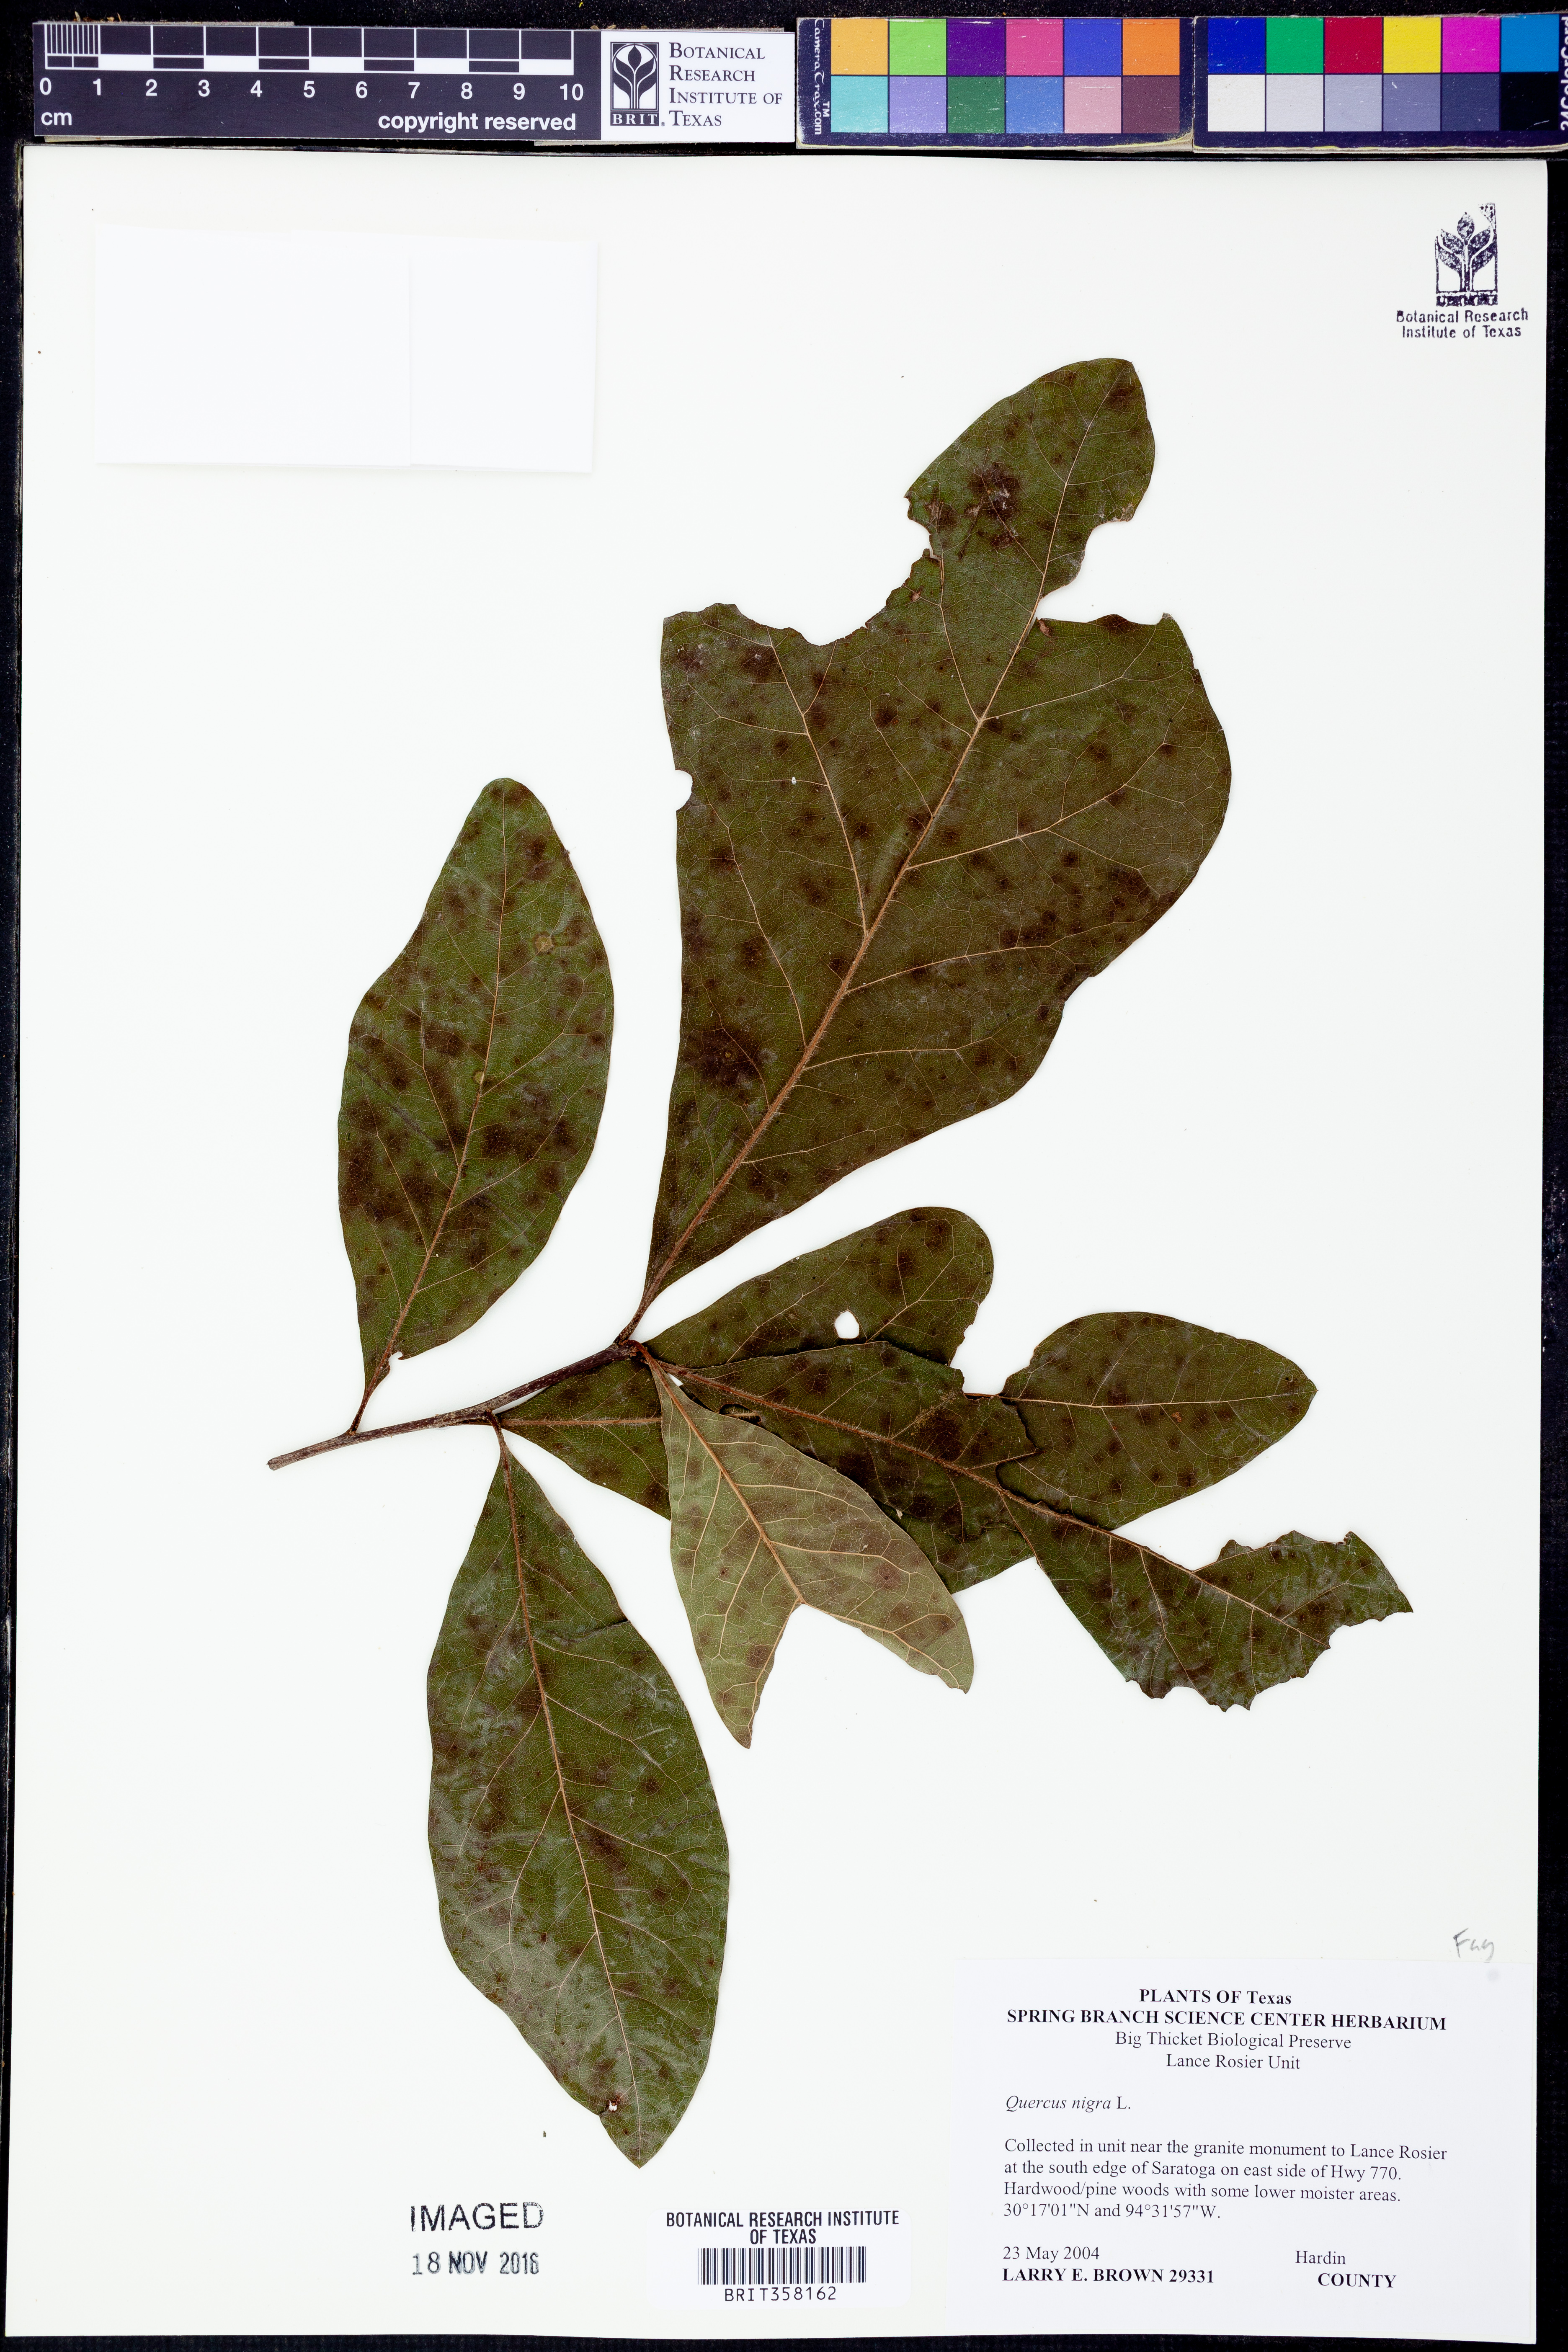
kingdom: Plantae
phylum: Tracheophyta
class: Magnoliopsida
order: Fagales
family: Fagaceae
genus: Quercus
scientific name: Quercus nigra
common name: Water oak
